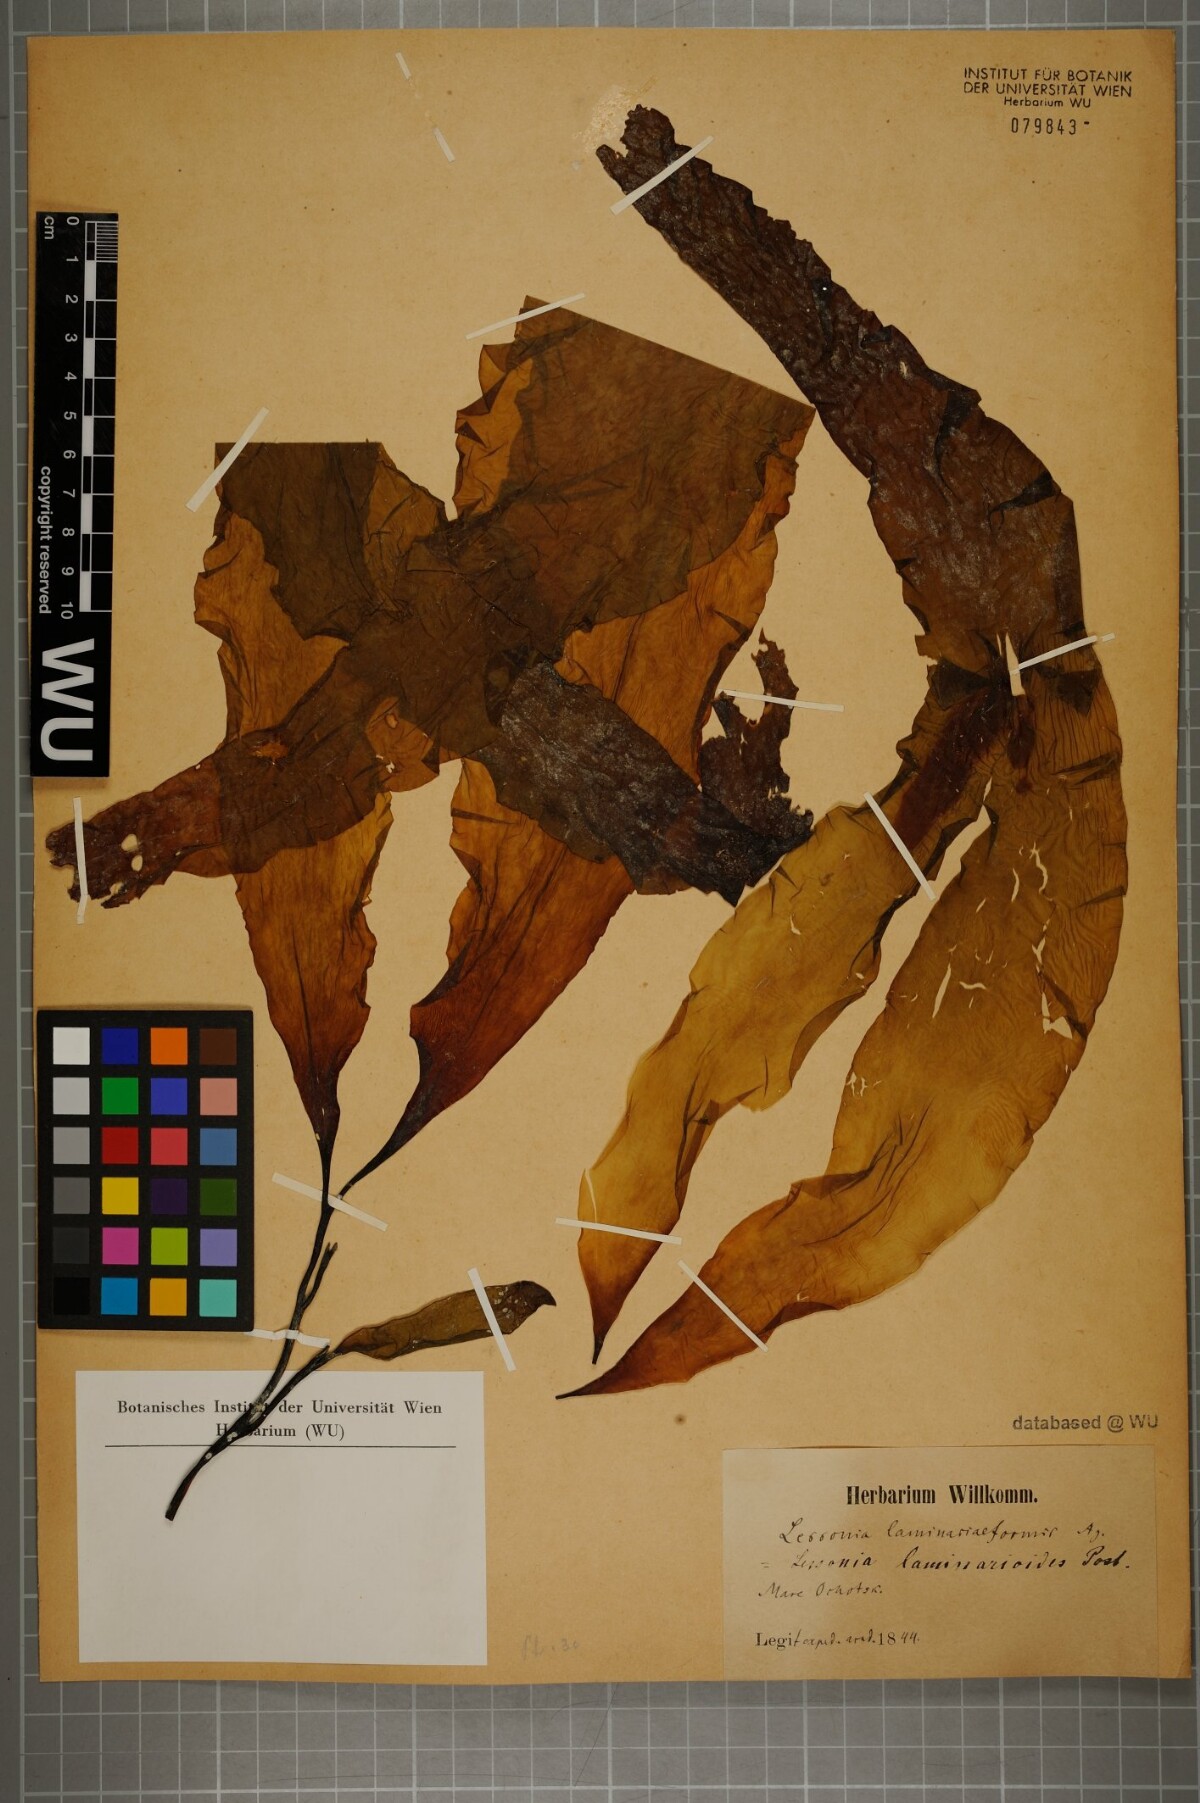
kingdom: Chromista
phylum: Ochrophyta
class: Phaeophyceae
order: Laminariales
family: Lessoniaceae
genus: Lessonia
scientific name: Lessonia
